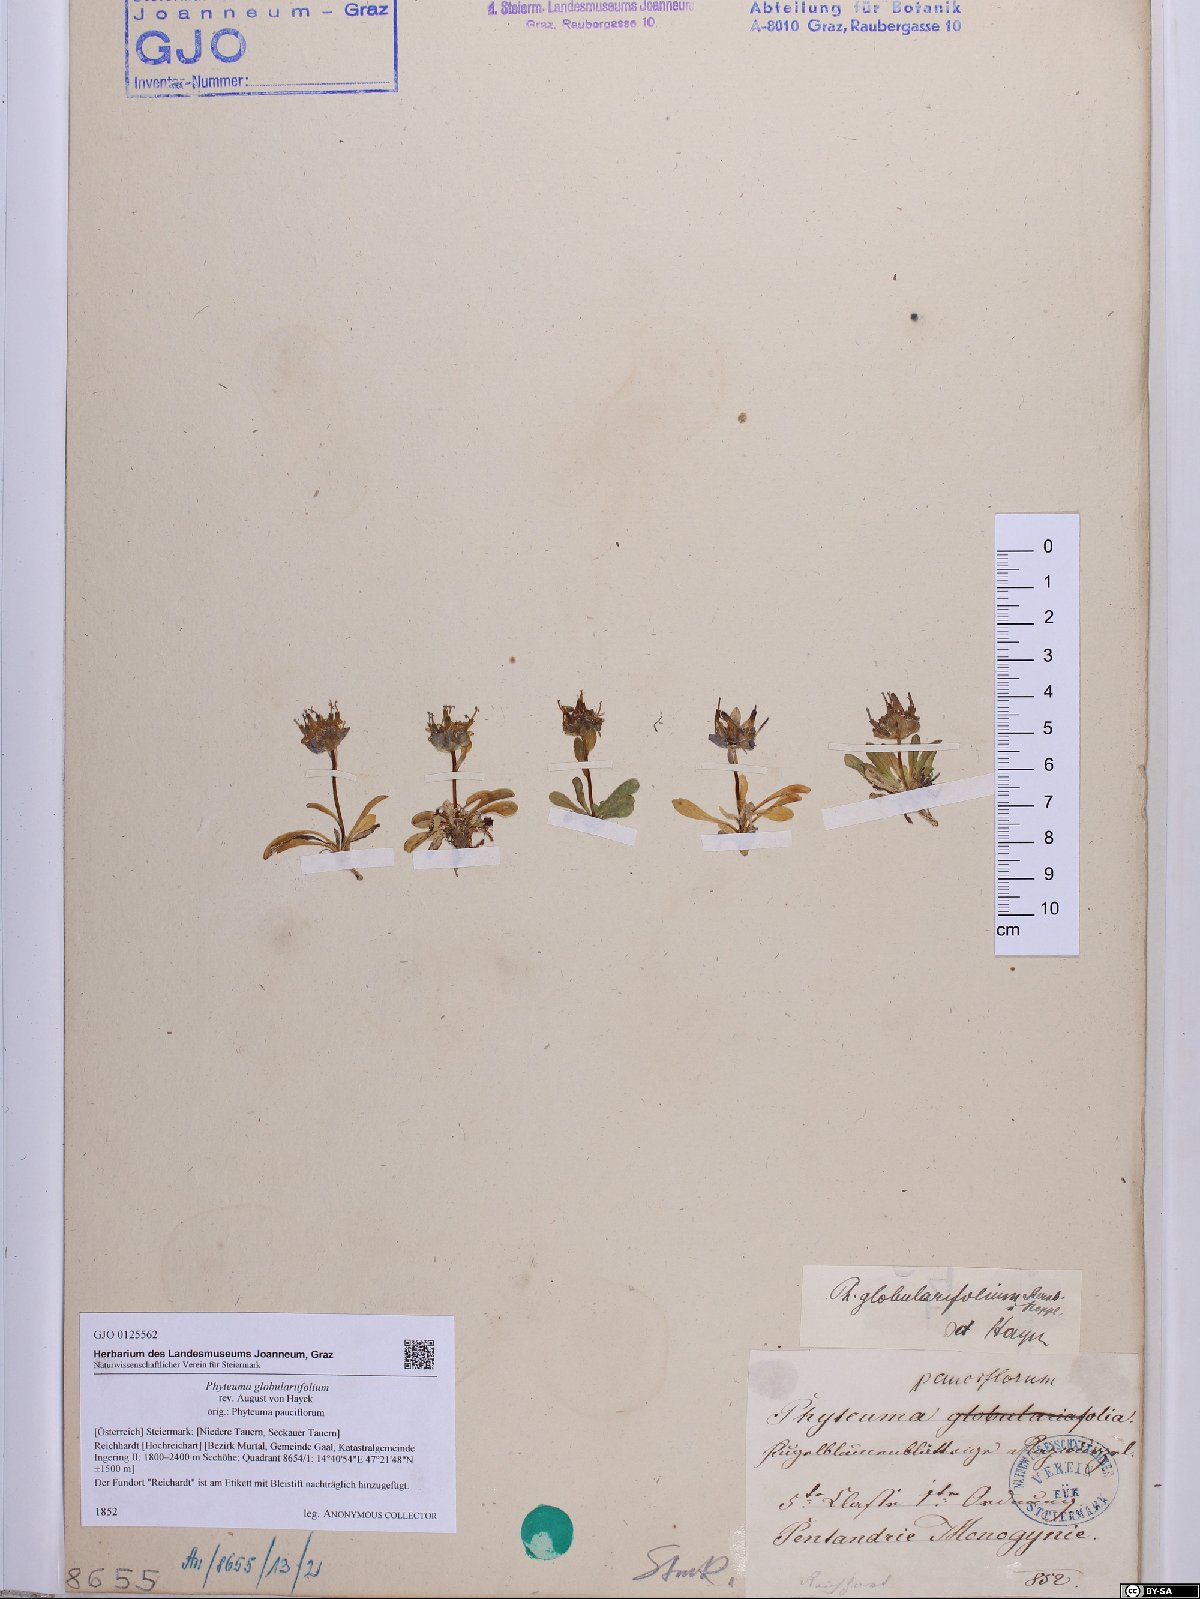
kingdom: Plantae
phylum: Tracheophyta
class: Magnoliopsida
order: Asterales
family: Campanulaceae
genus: Phyteuma
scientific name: Phyteuma globulariifolium
